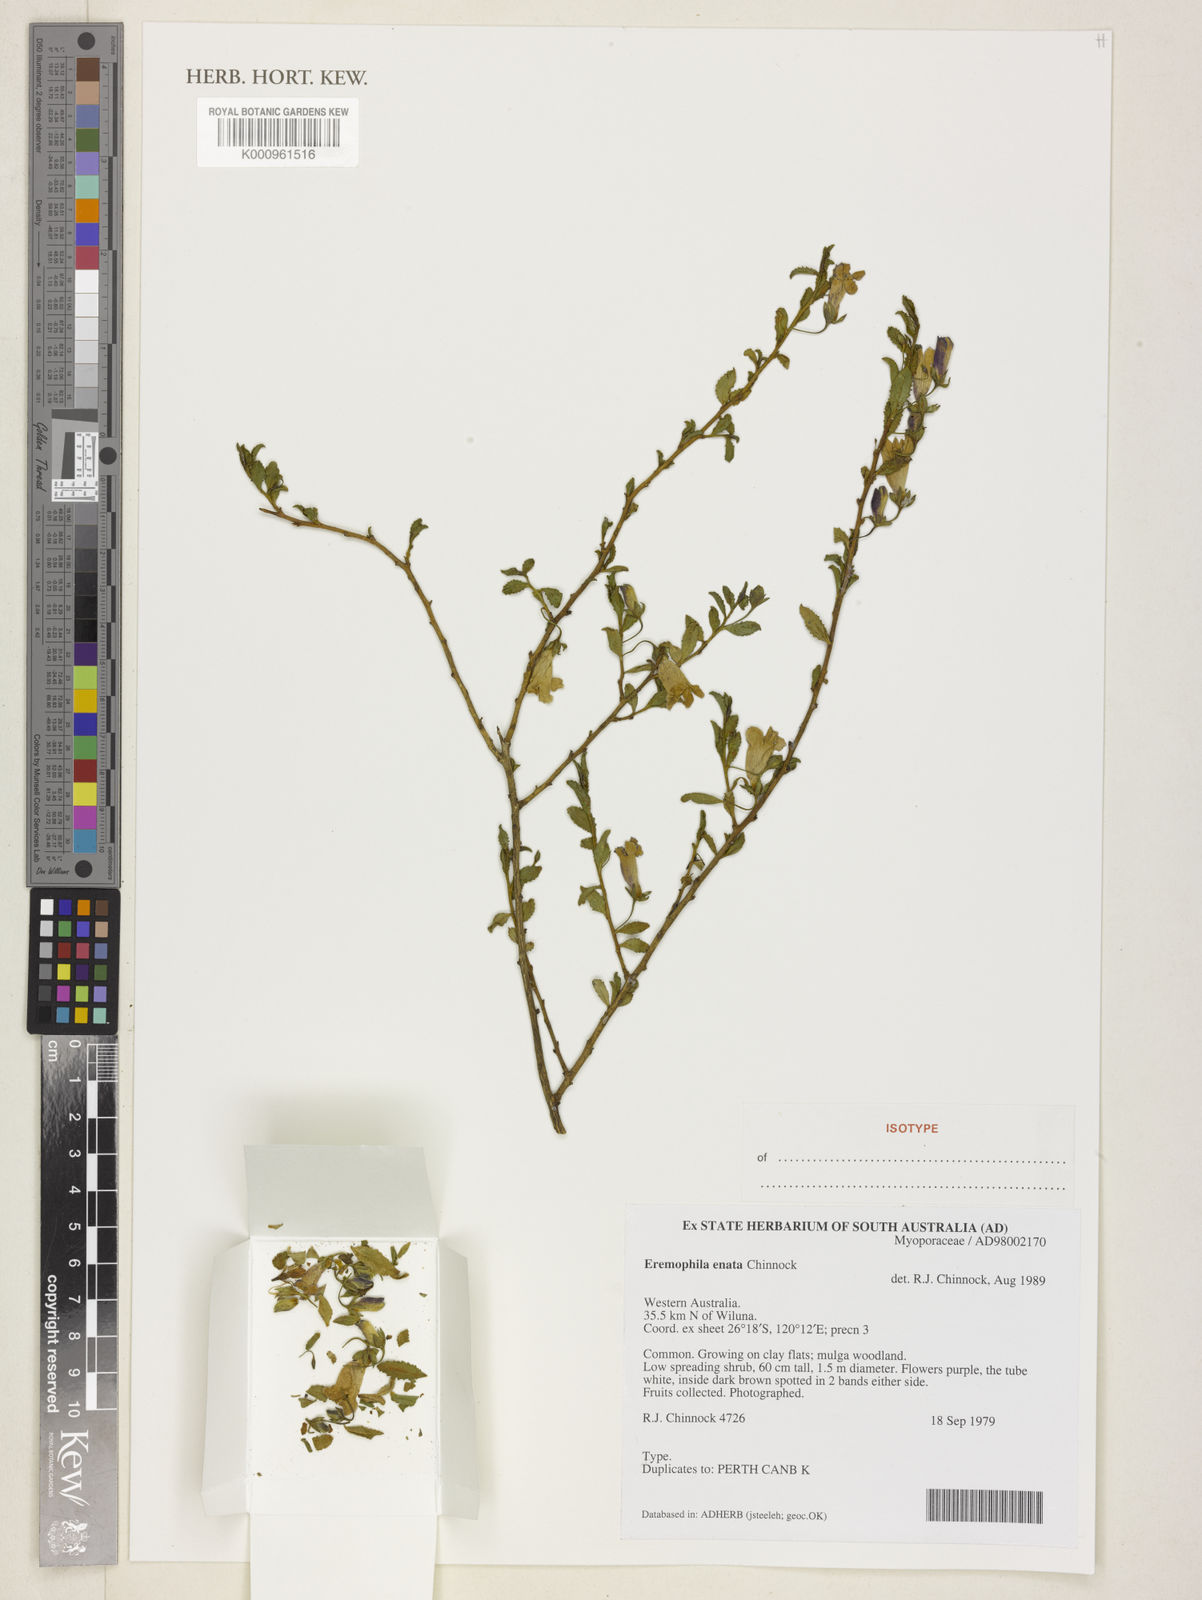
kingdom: Plantae
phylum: Tracheophyta
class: Magnoliopsida
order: Lamiales
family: Scrophulariaceae
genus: Eremophila
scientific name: Eremophila enata
